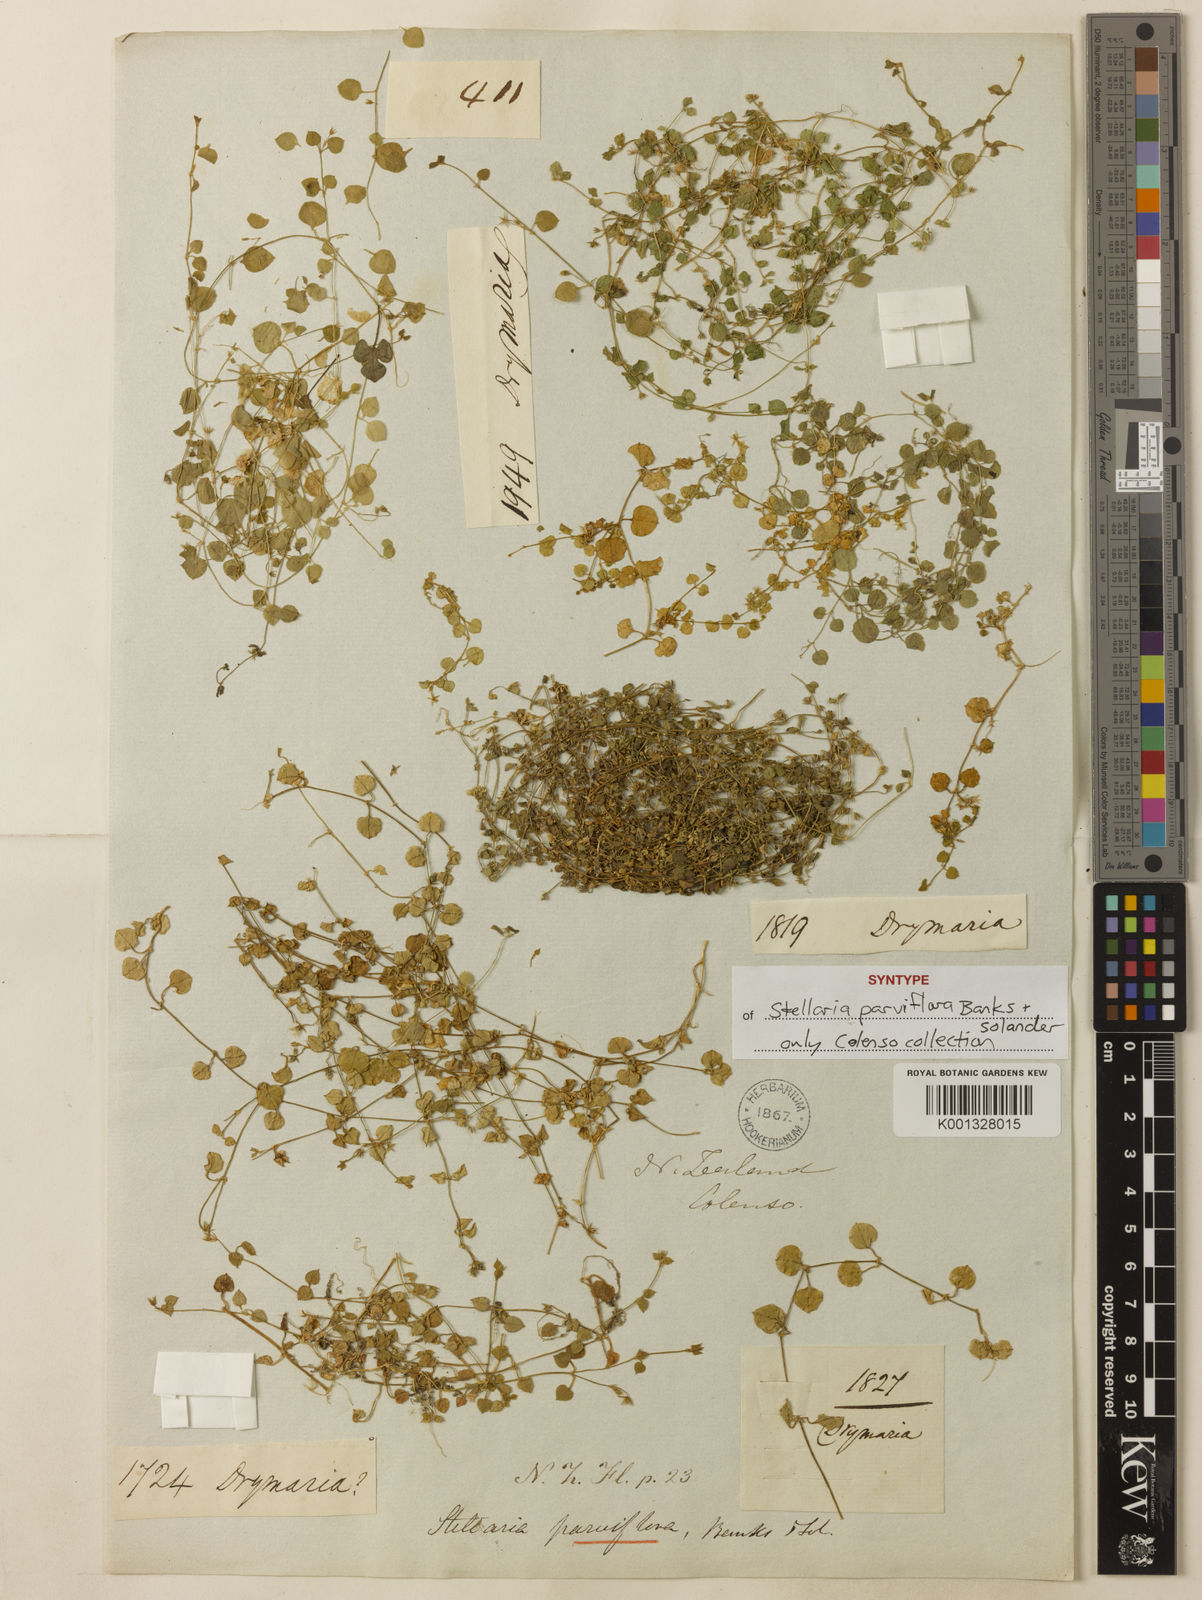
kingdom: Plantae
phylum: Tracheophyta
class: Magnoliopsida
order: Caryophyllales
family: Caryophyllaceae
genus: Stellaria
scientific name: Stellaria parviflora
